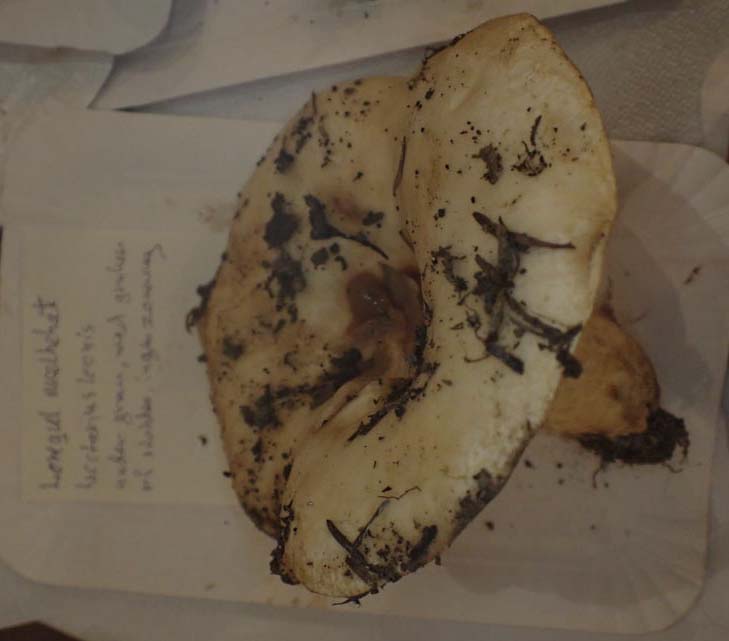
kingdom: Fungi
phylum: Basidiomycota
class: Agaricomycetes
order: Russulales
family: Russulaceae
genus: Lactarius
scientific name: Lactarius torminosus
